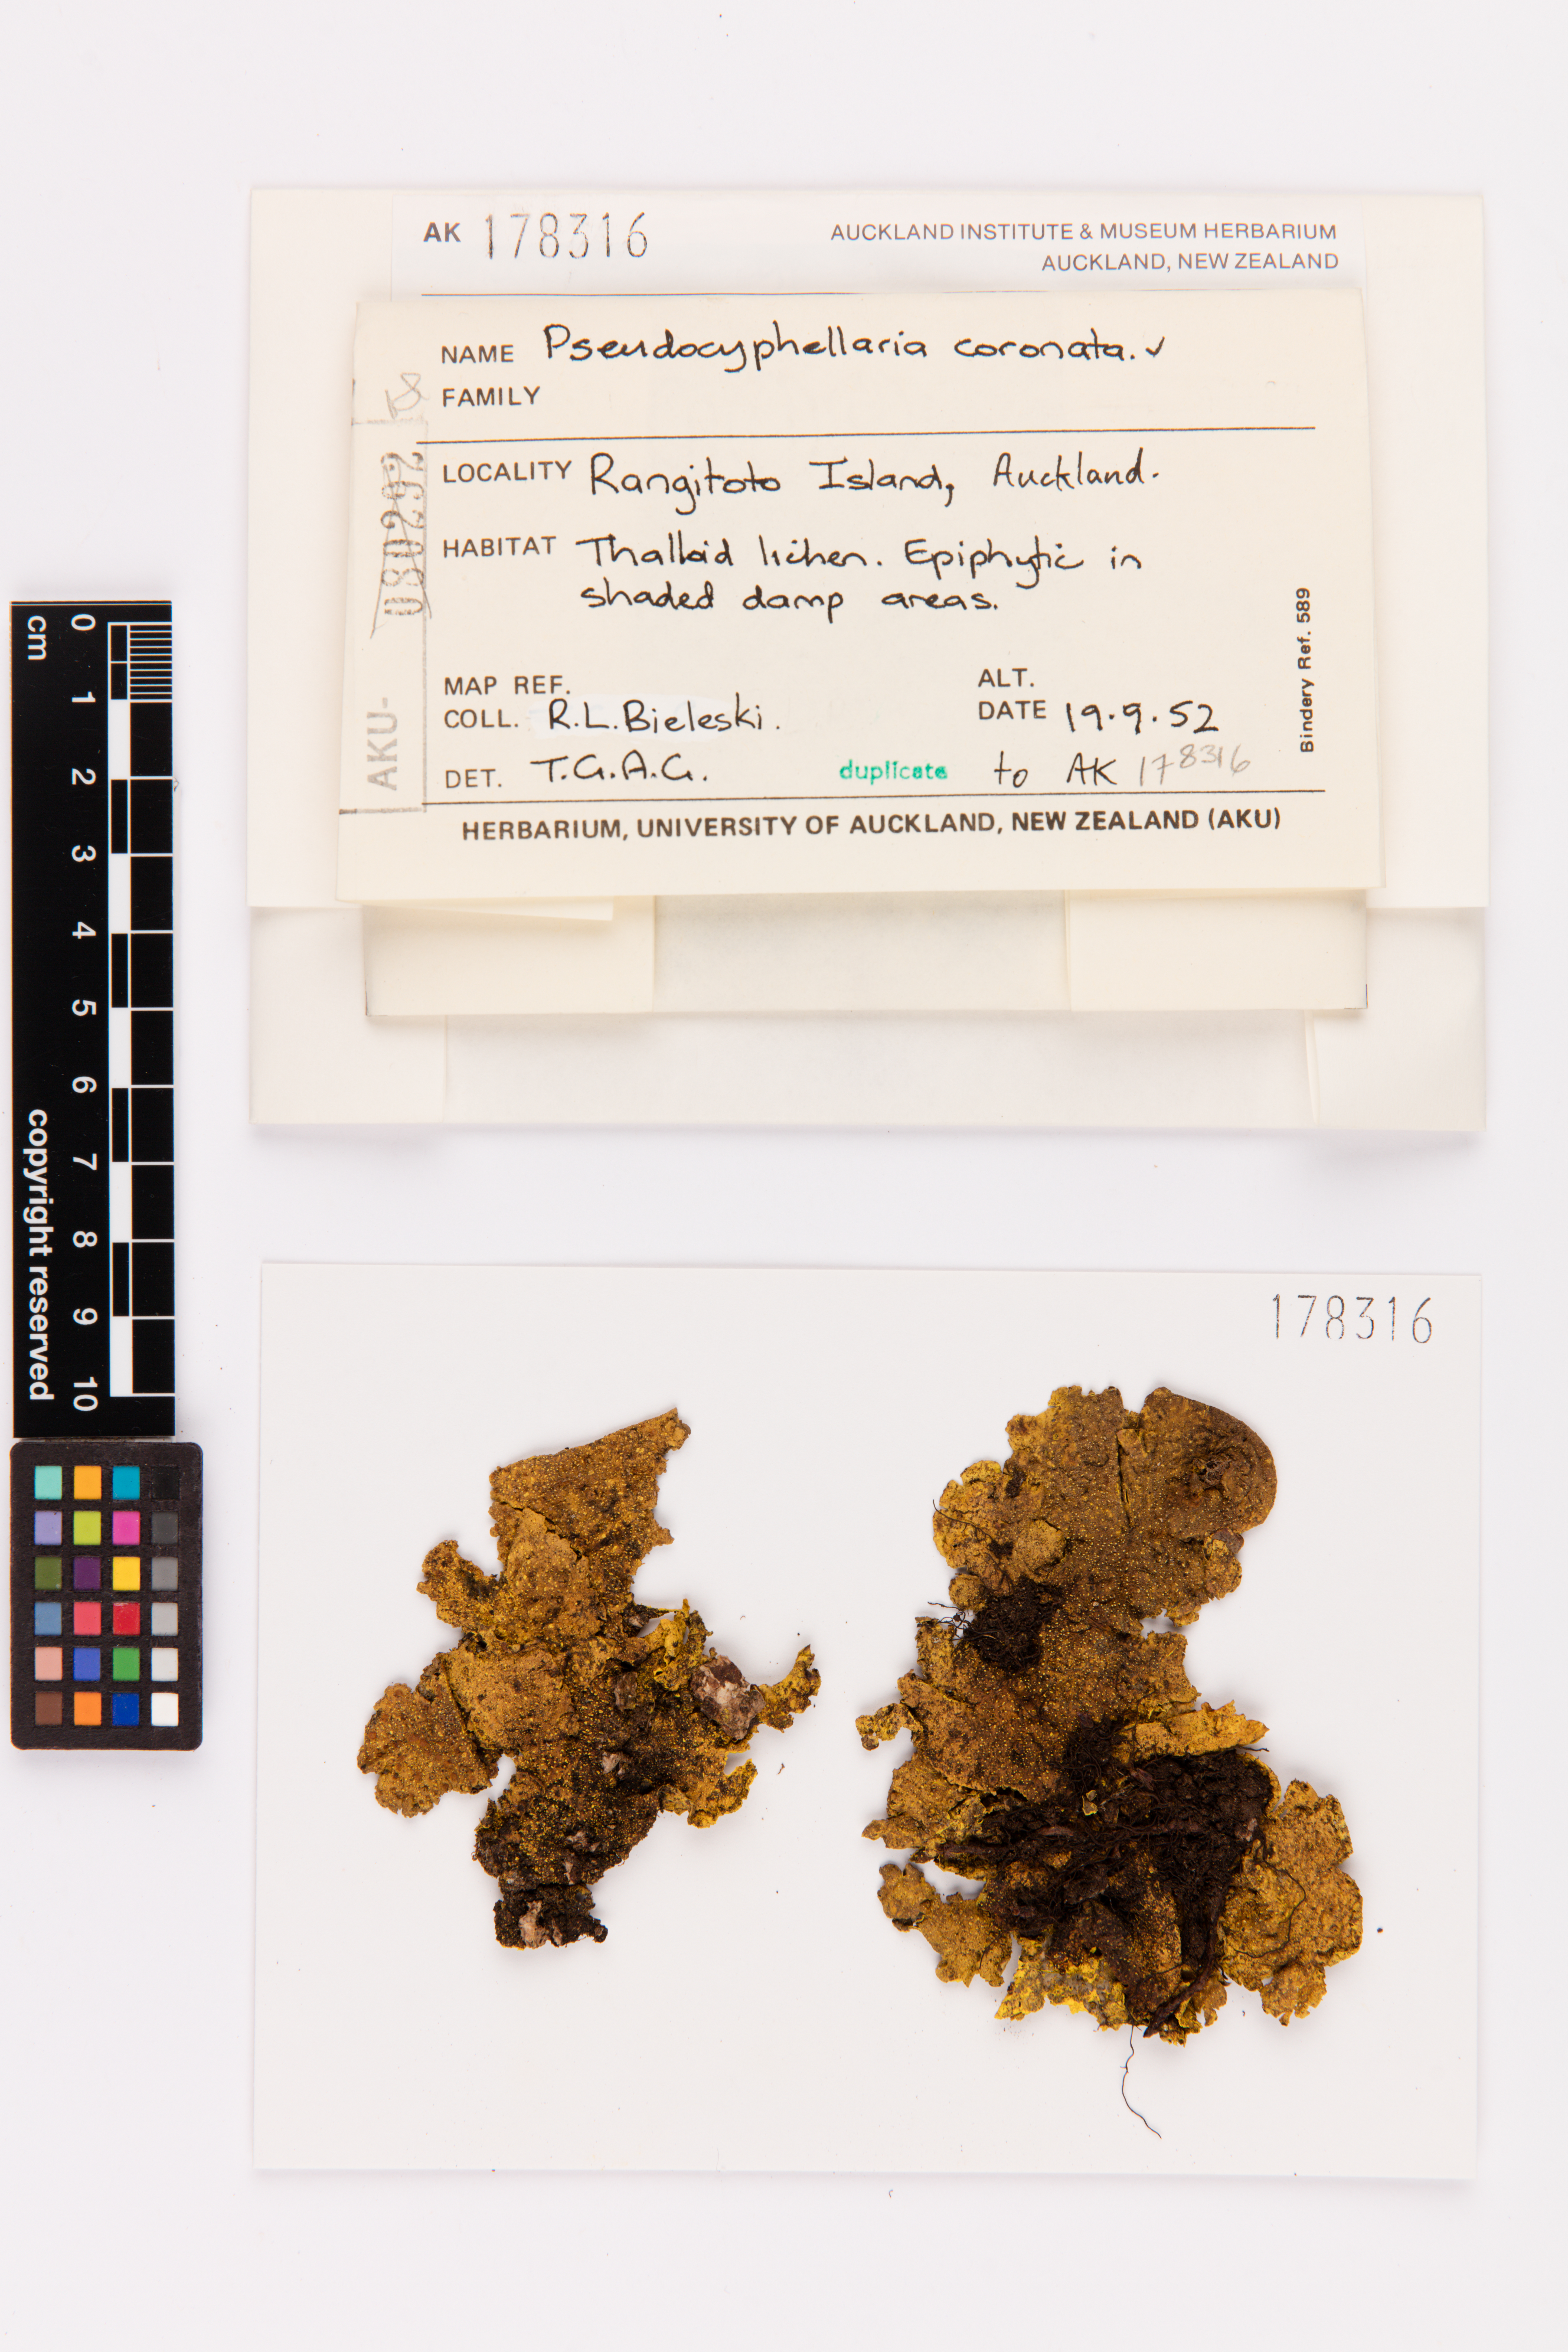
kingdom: Fungi
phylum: Ascomycota
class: Lecanoromycetes
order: Peltigerales
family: Lobariaceae
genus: Yarrumia
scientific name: Yarrumia coronata
